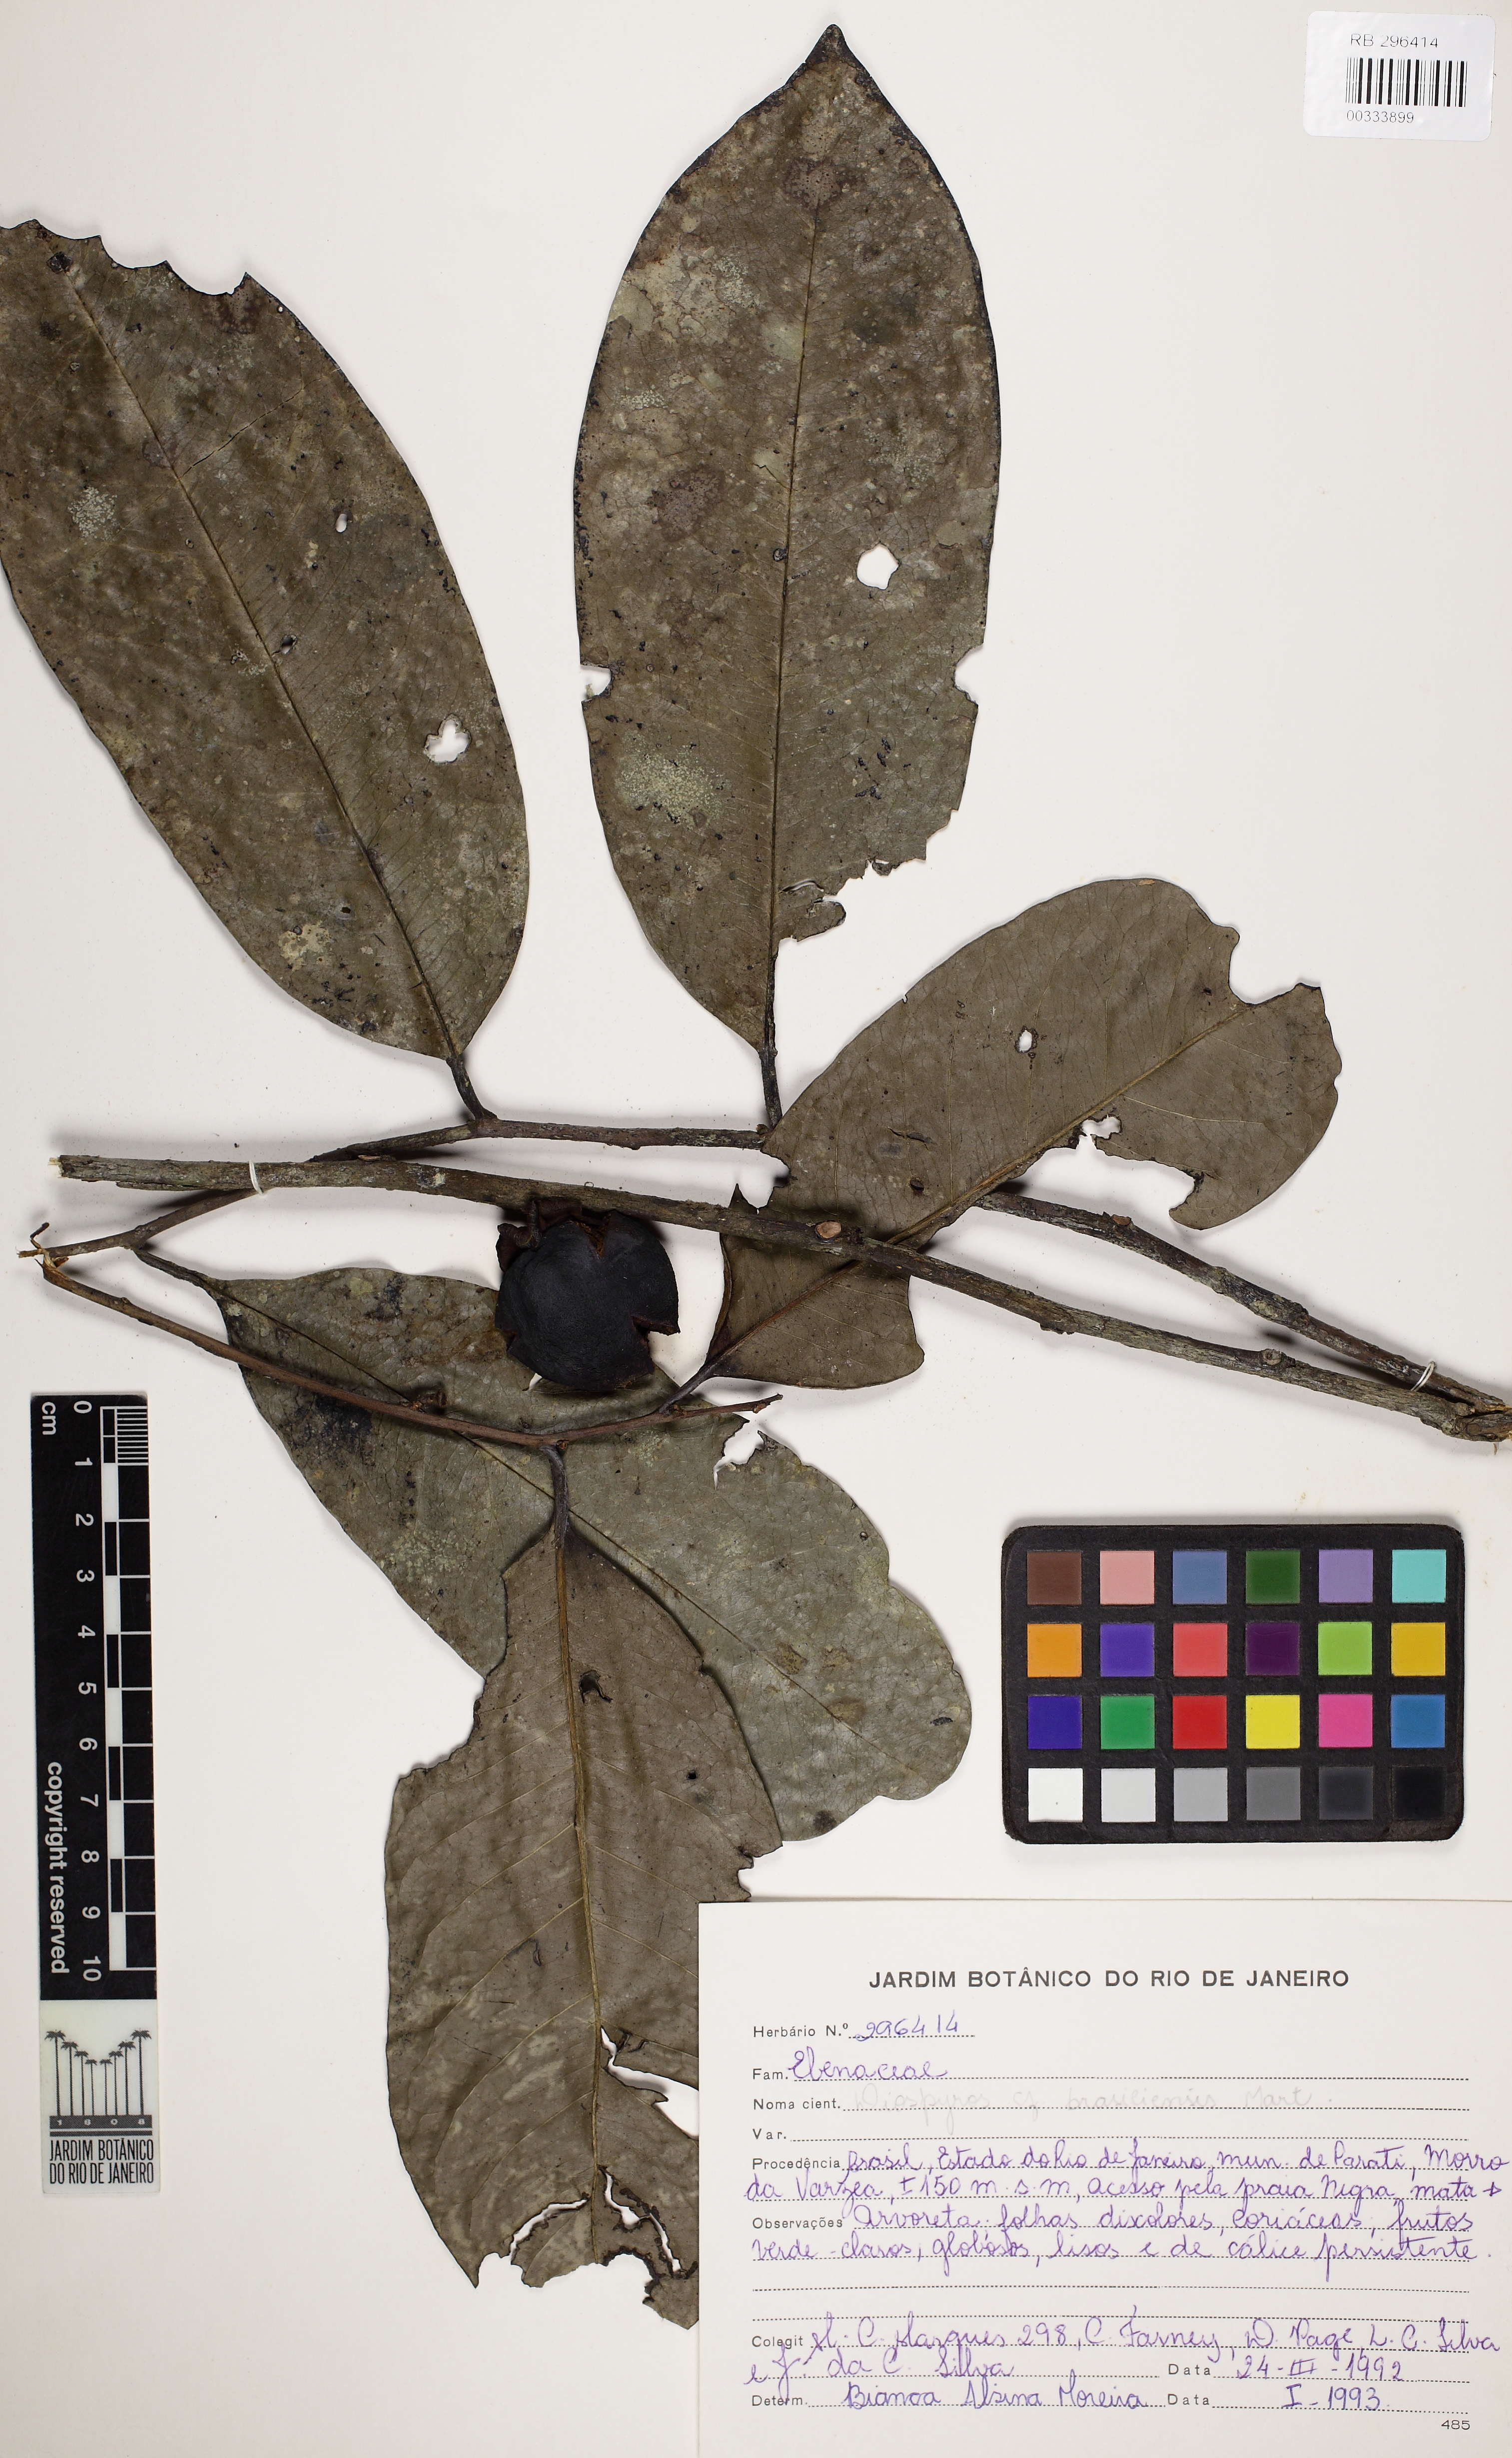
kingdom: Plantae
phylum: Tracheophyta
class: Magnoliopsida
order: Ericales
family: Ebenaceae
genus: Diospyros
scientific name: Diospyros brasiliensis
